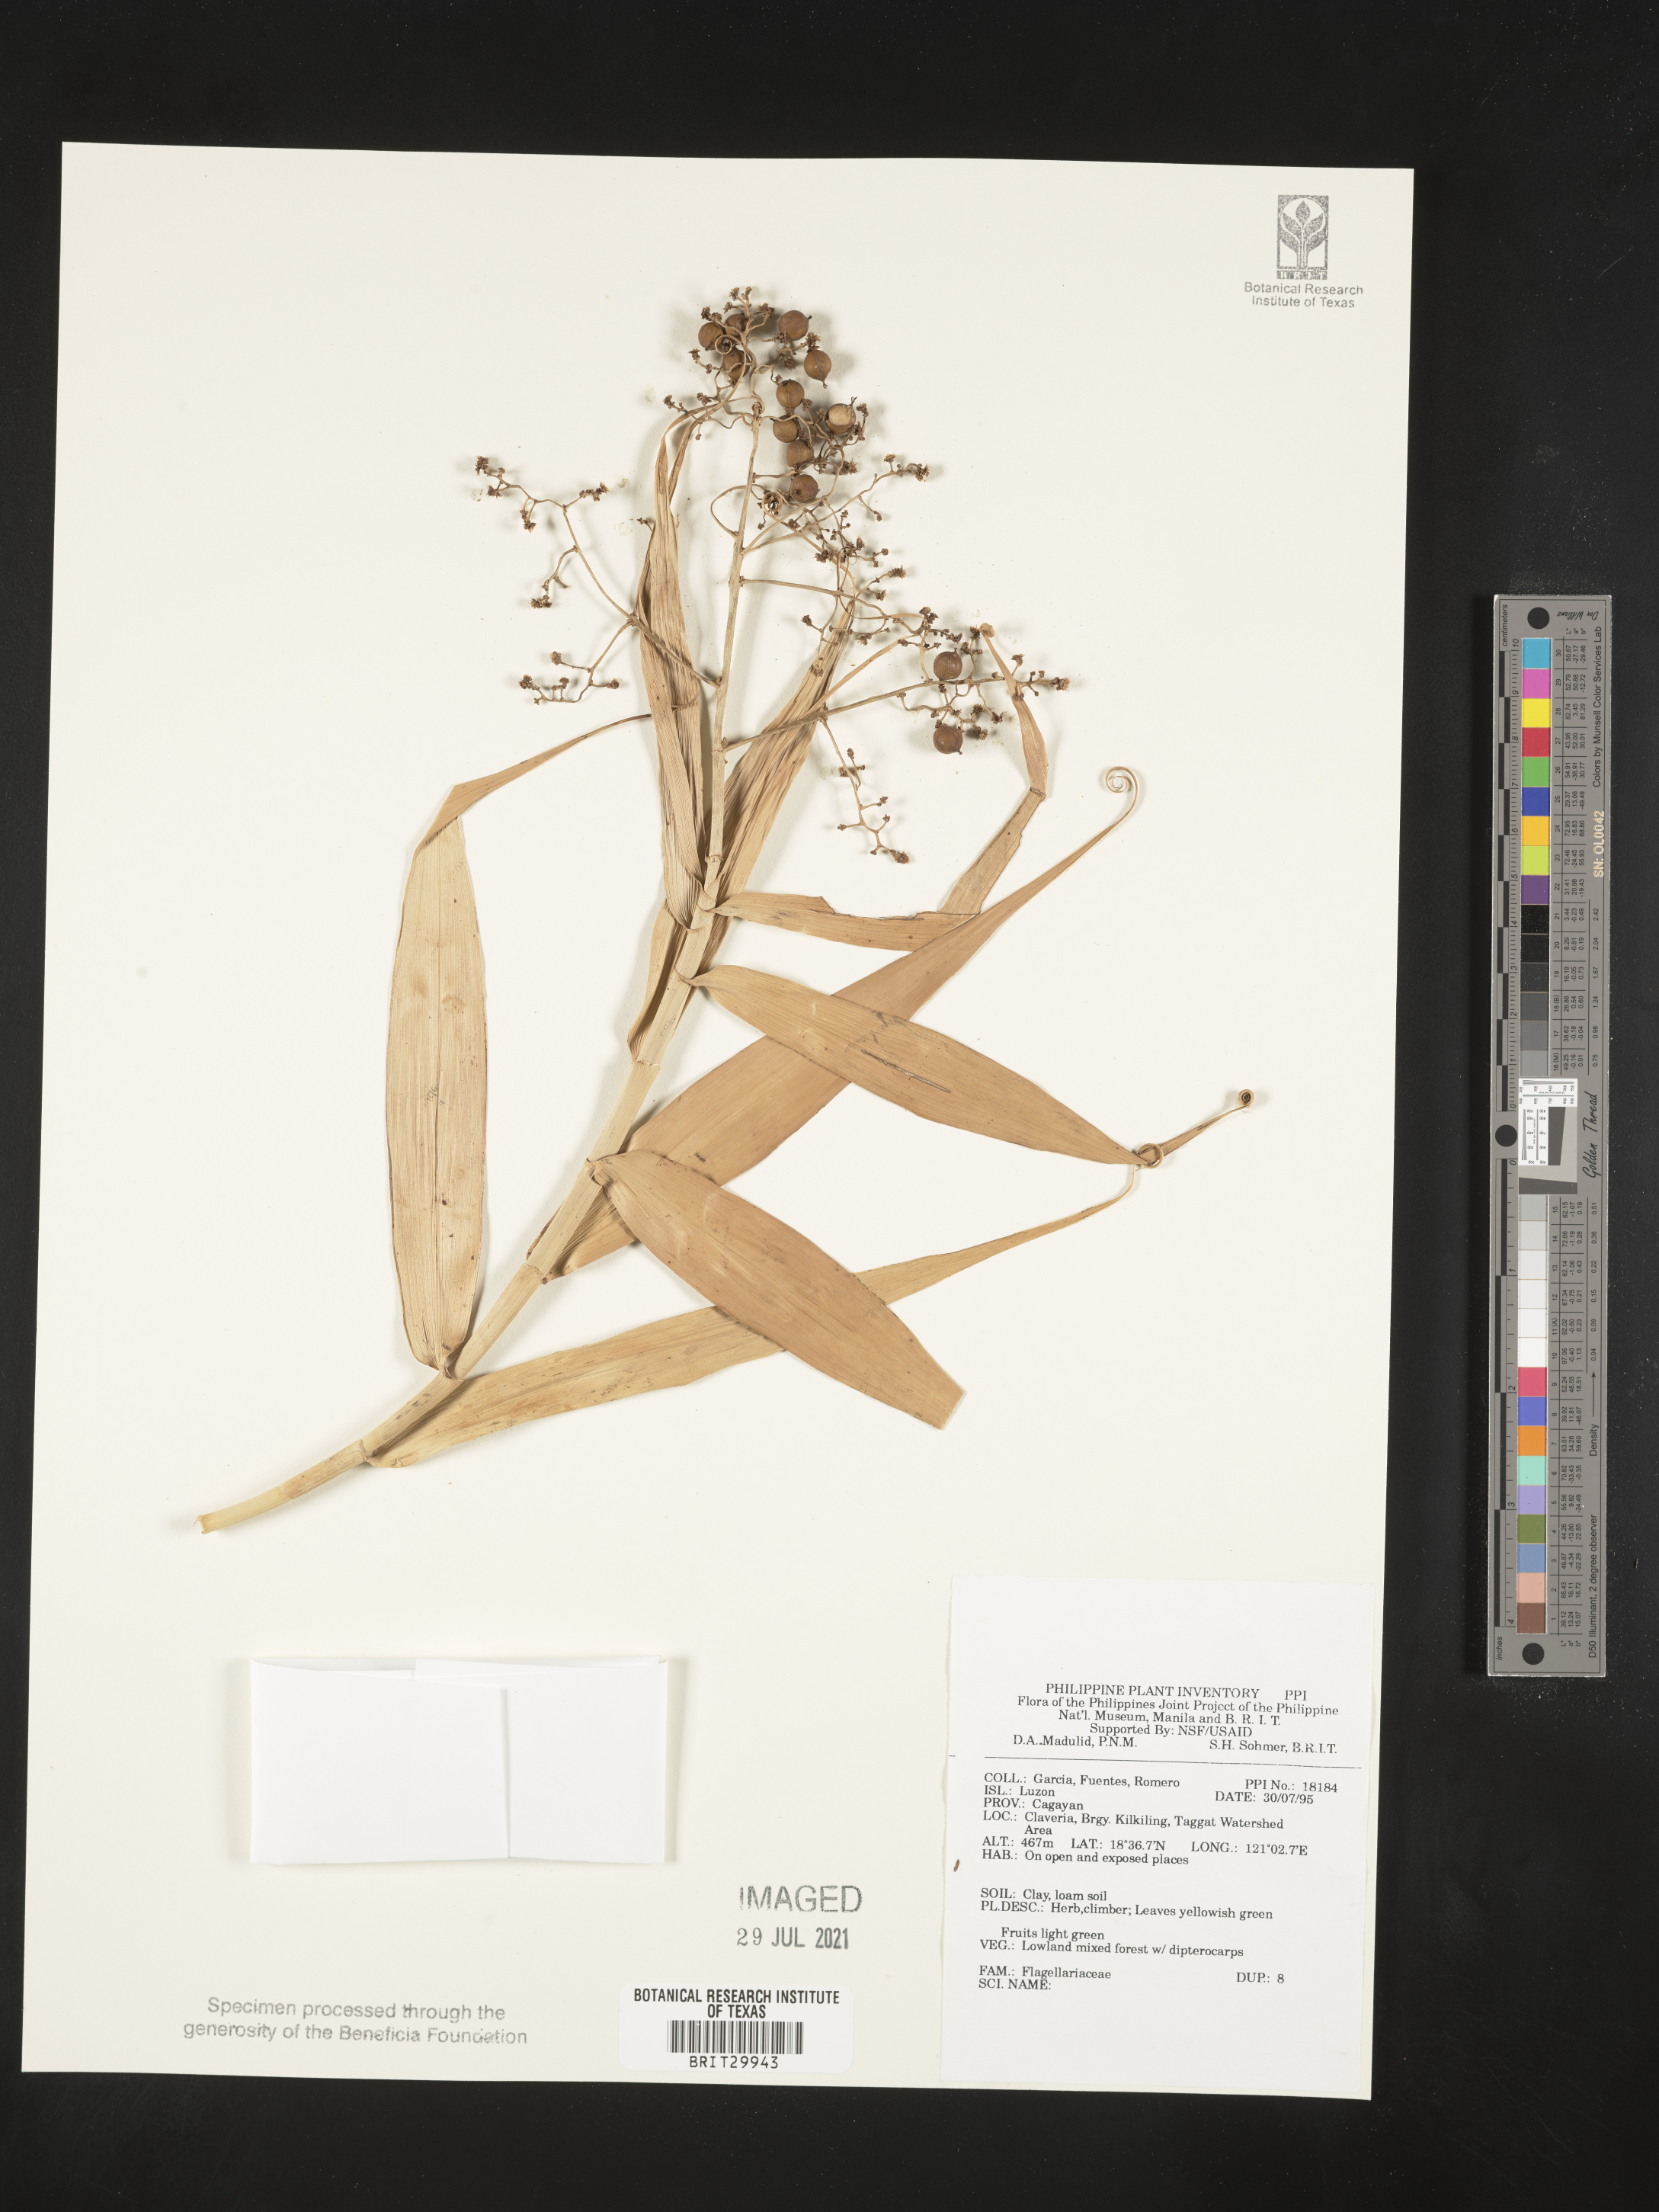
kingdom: Plantae
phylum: Tracheophyta
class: Liliopsida
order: Poales
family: Flagellariaceae
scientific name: Flagellariaceae
